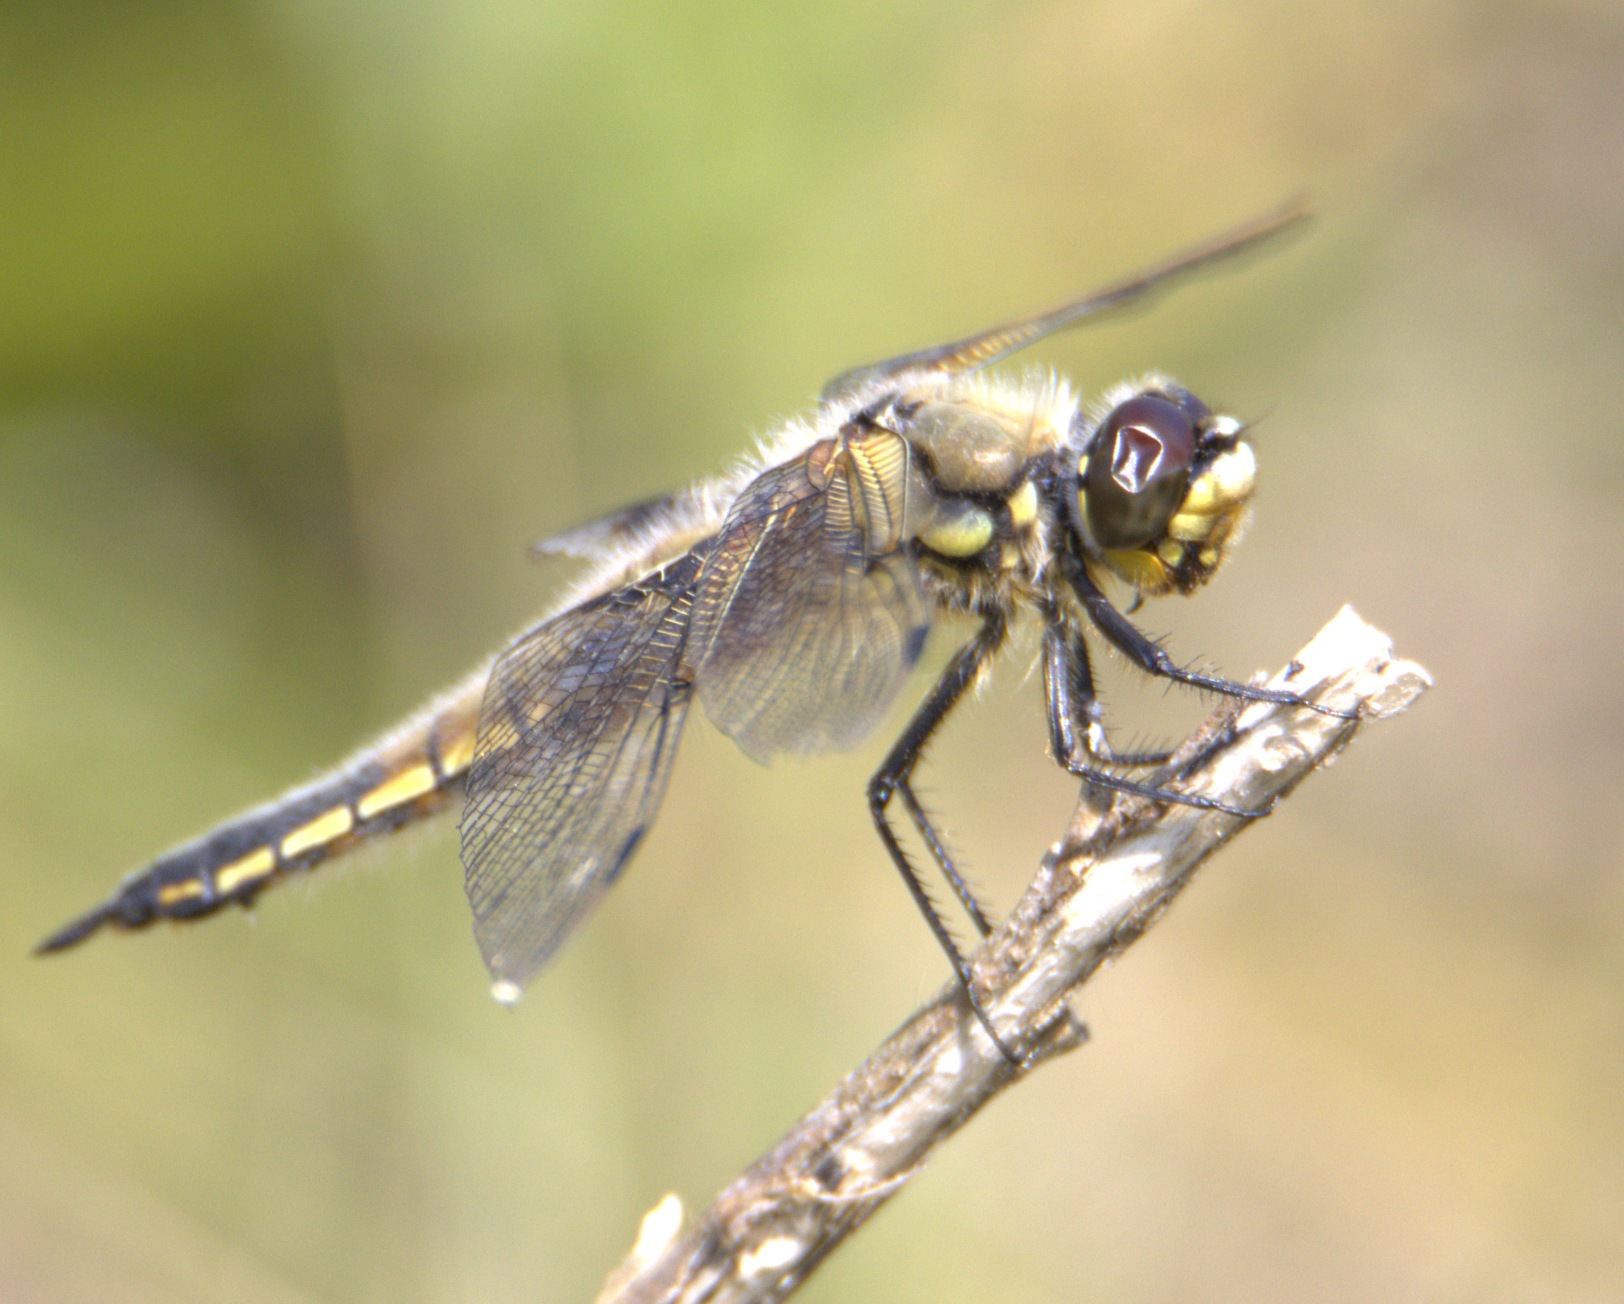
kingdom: Animalia
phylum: Arthropoda
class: Insecta
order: Odonata
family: Libellulidae
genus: Libellula
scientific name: Libellula quadrimaculata
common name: Fireplettet libel
